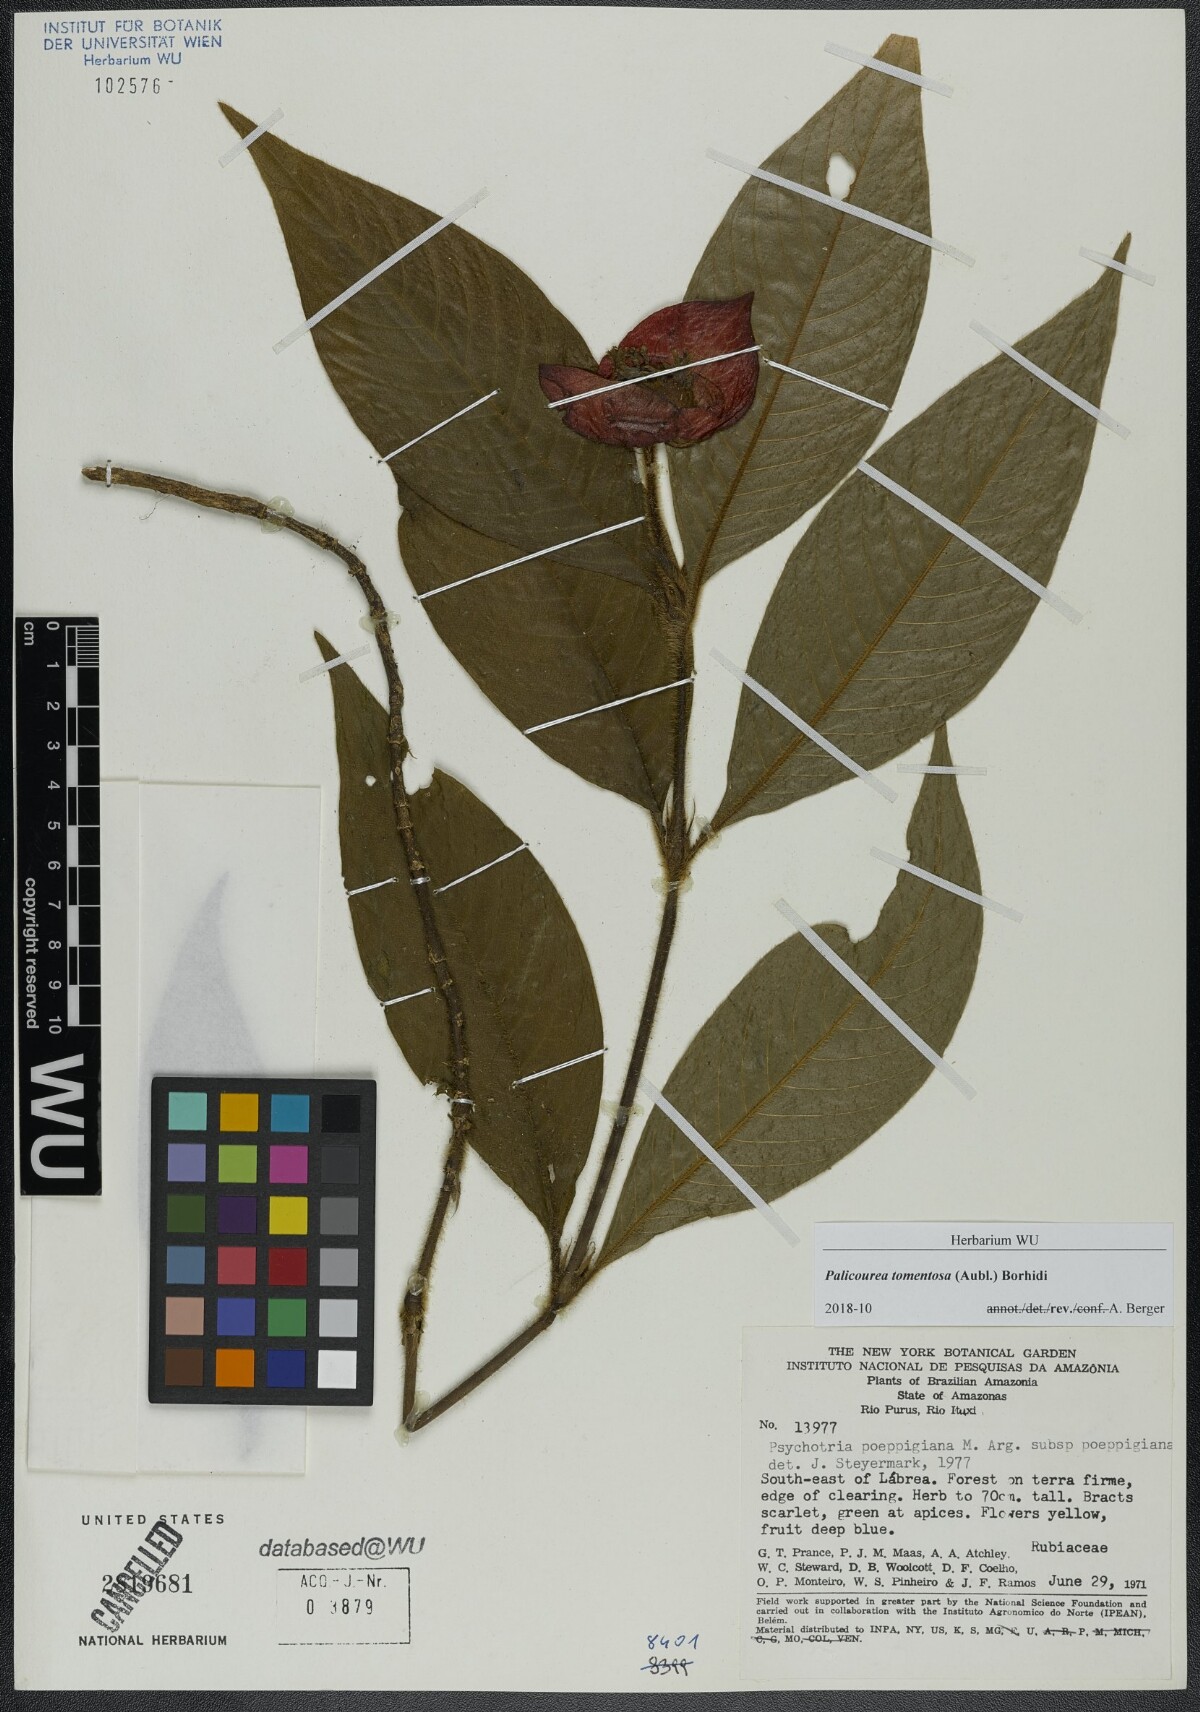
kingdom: Plantae
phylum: Tracheophyta
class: Magnoliopsida
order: Gentianales
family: Rubiaceae
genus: Palicourea
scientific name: Palicourea tomentosa
